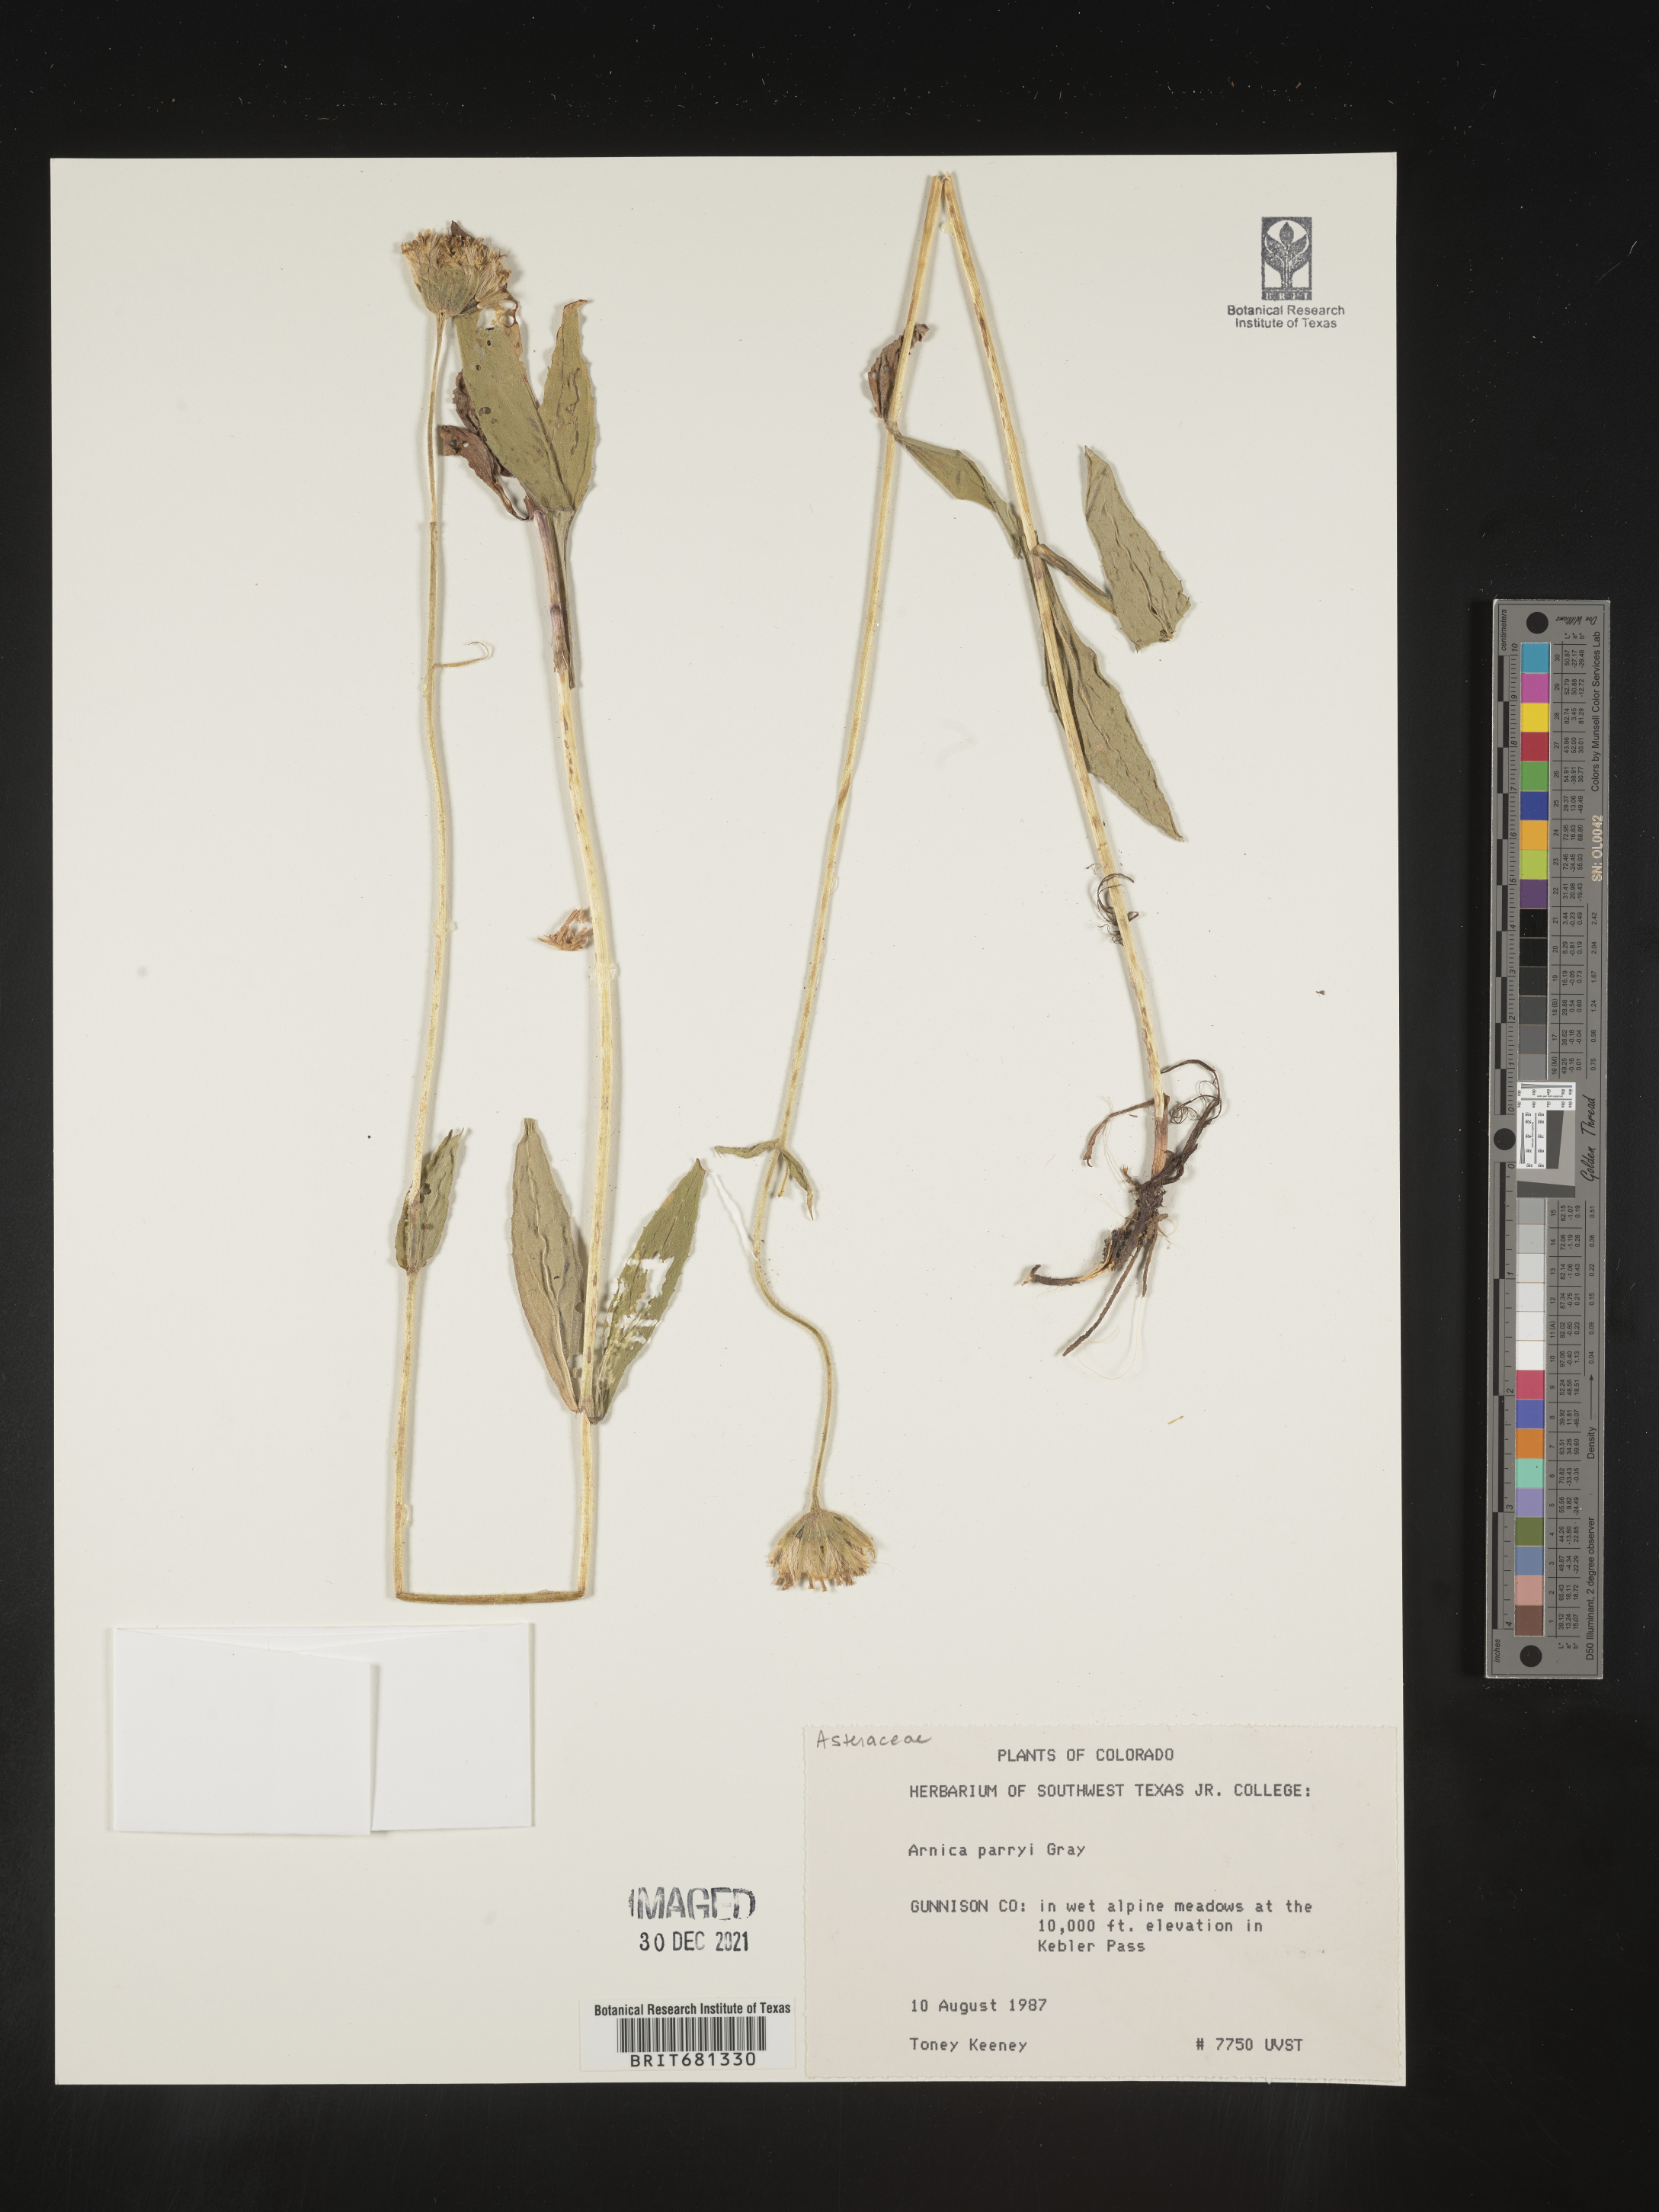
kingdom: Plantae
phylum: Tracheophyta
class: Magnoliopsida
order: Asterales
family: Asteraceae
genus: Arnica
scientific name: Arnica parryi
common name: Parry's arnica
